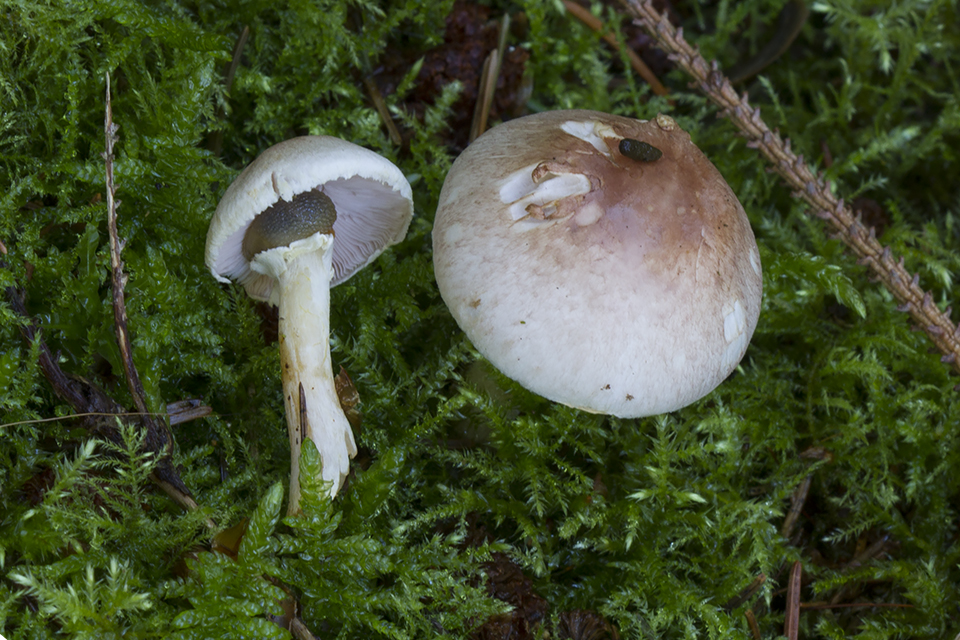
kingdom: Fungi
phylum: Basidiomycota
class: Agaricomycetes
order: Agaricales
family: Agaricaceae
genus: Agaricus
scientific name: Agaricus dulcidulus
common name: blegrød champignon
